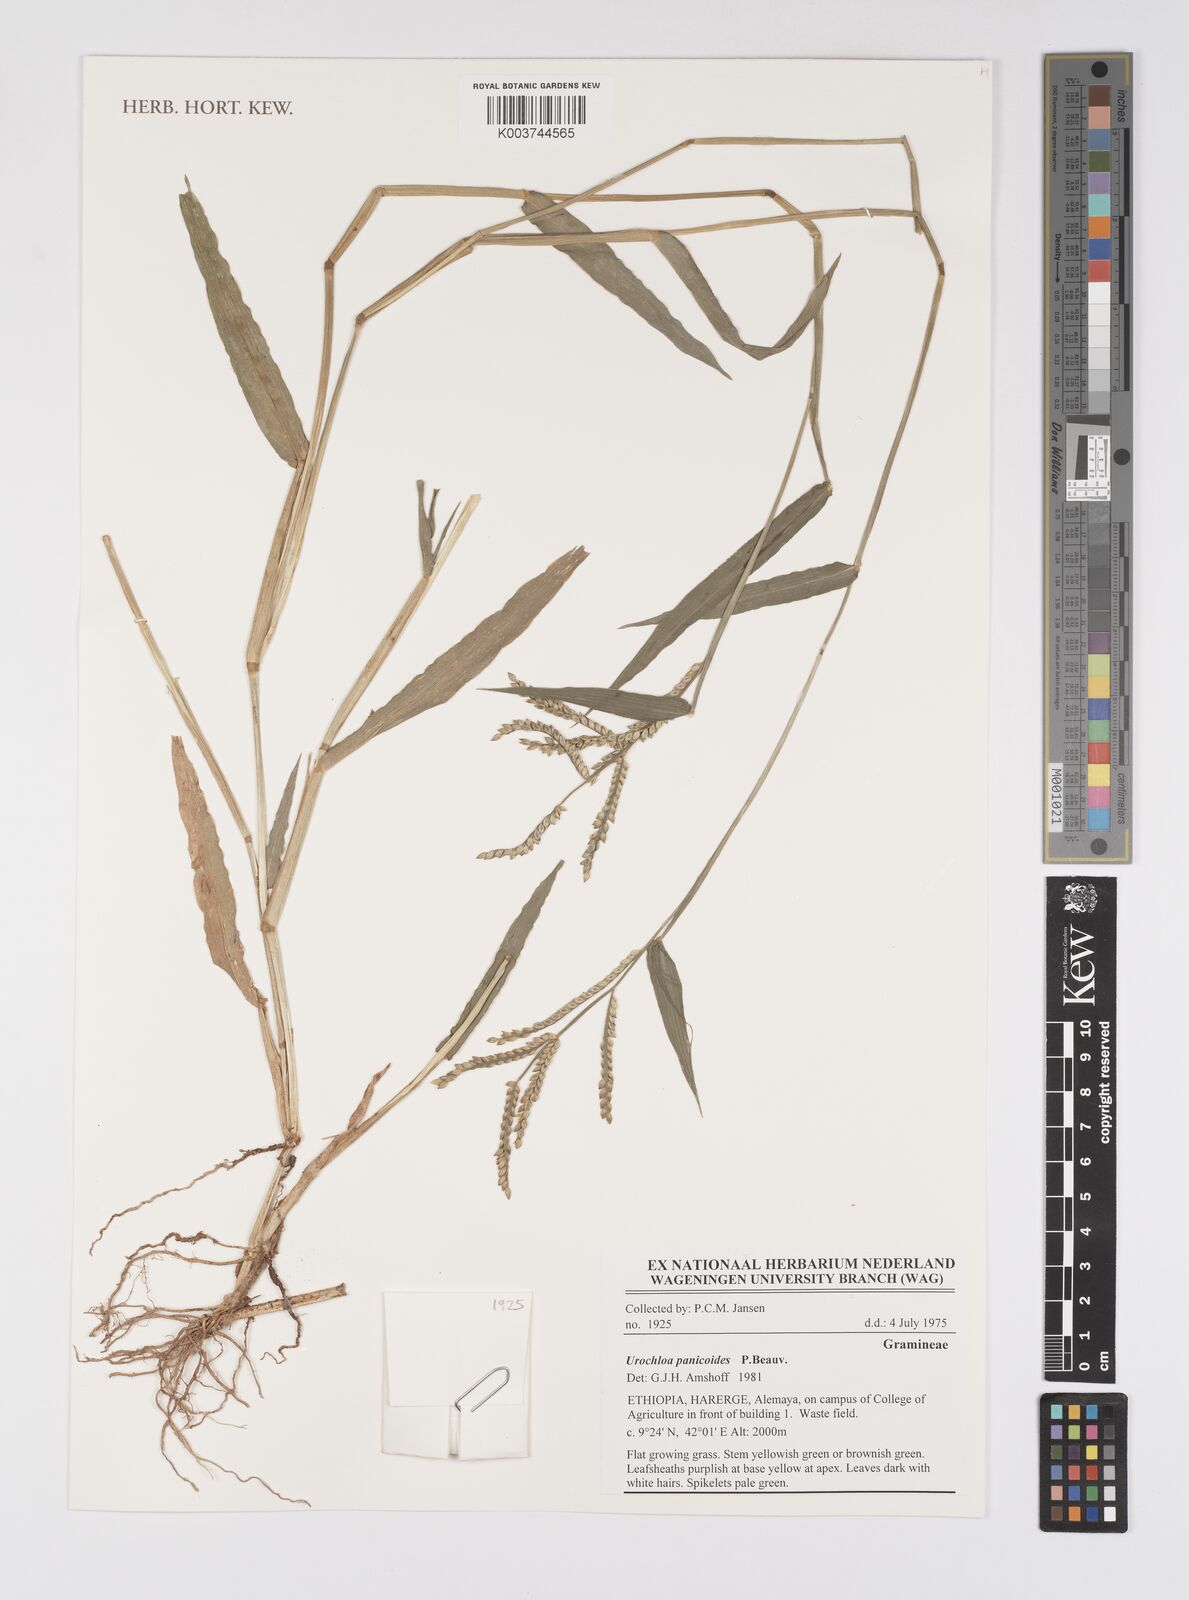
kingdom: Plantae
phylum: Tracheophyta
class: Liliopsida
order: Poales
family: Poaceae
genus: Urochloa
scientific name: Urochloa panicoides
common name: Sharp-flowered signal-grass
